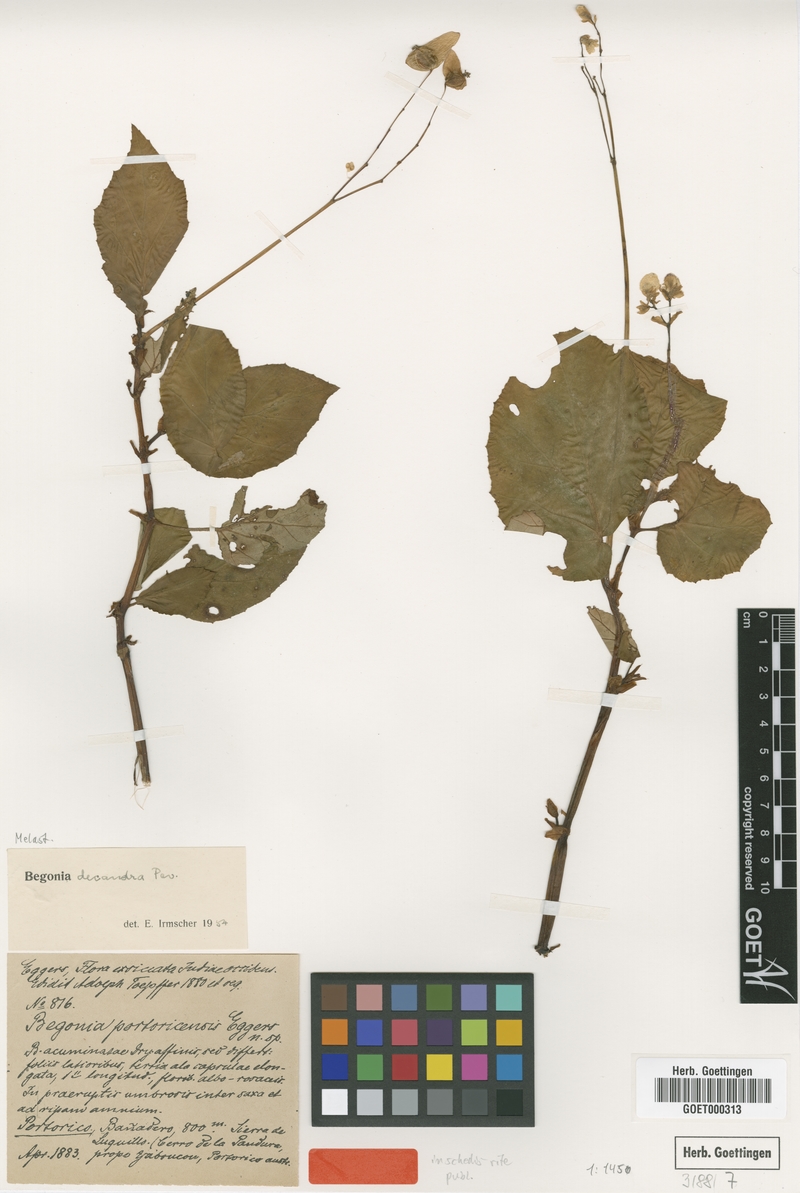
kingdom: Plantae
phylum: Tracheophyta
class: Magnoliopsida
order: Cucurbitales
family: Begoniaceae
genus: Begonia
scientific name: Begonia decandra
